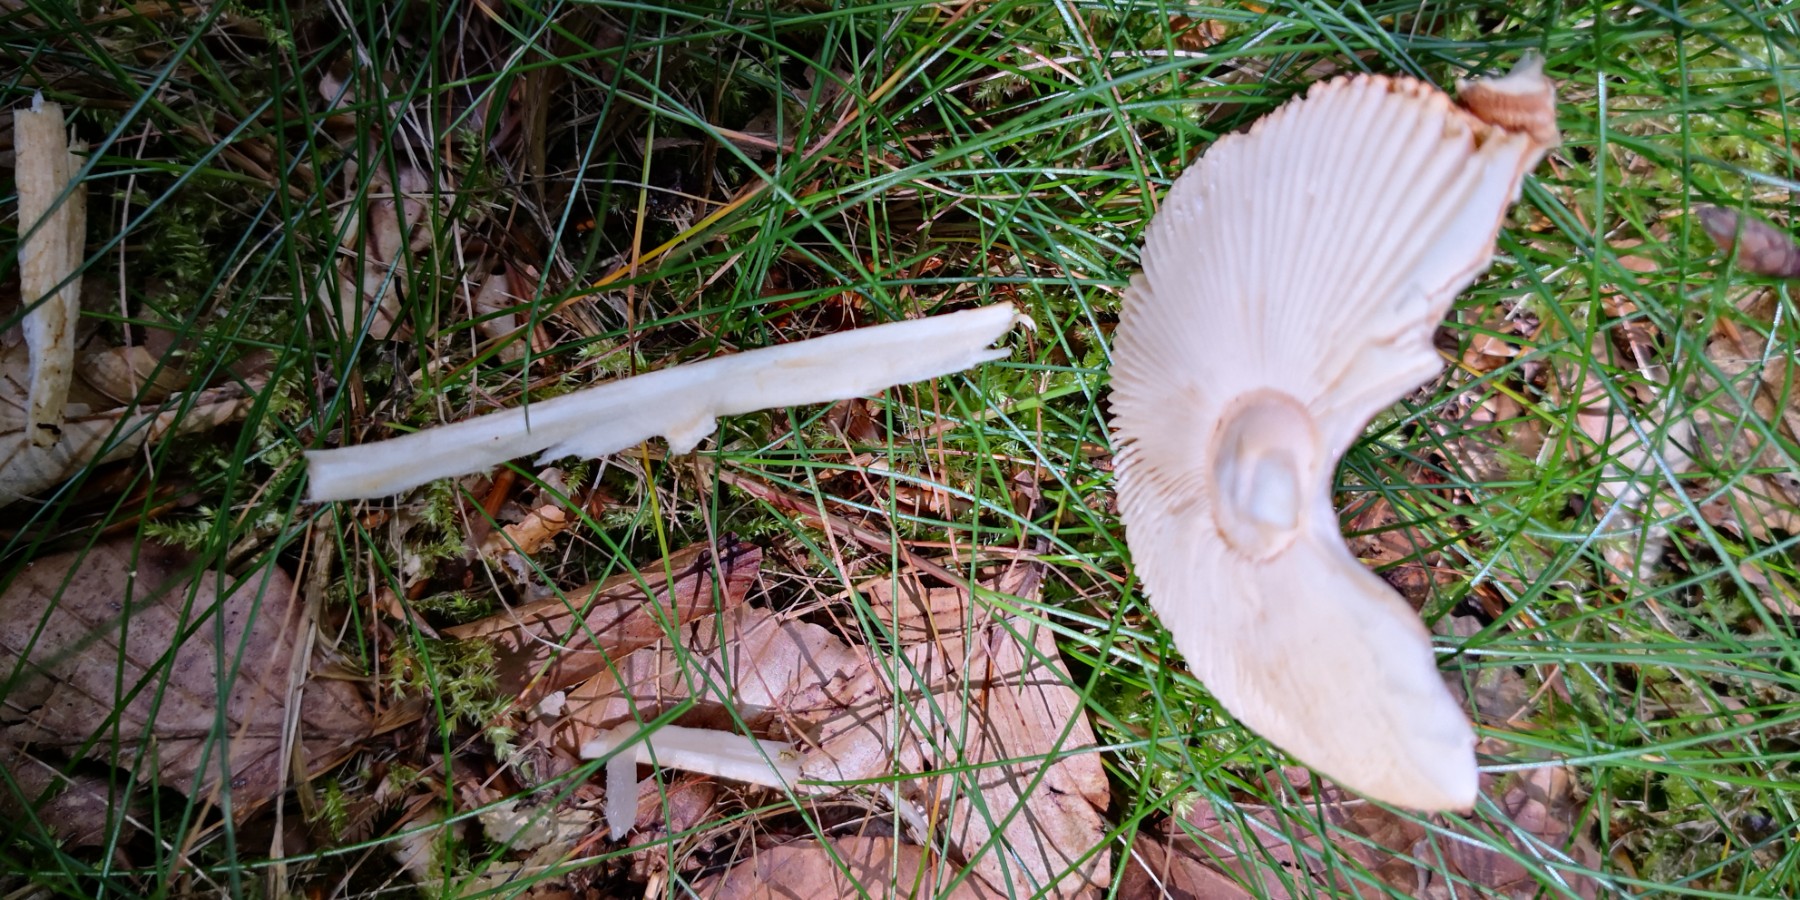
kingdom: Fungi
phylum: Basidiomycota
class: Agaricomycetes
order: Agaricales
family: Amanitaceae
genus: Amanita
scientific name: Amanita fulva
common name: brun kam-fluesvamp
